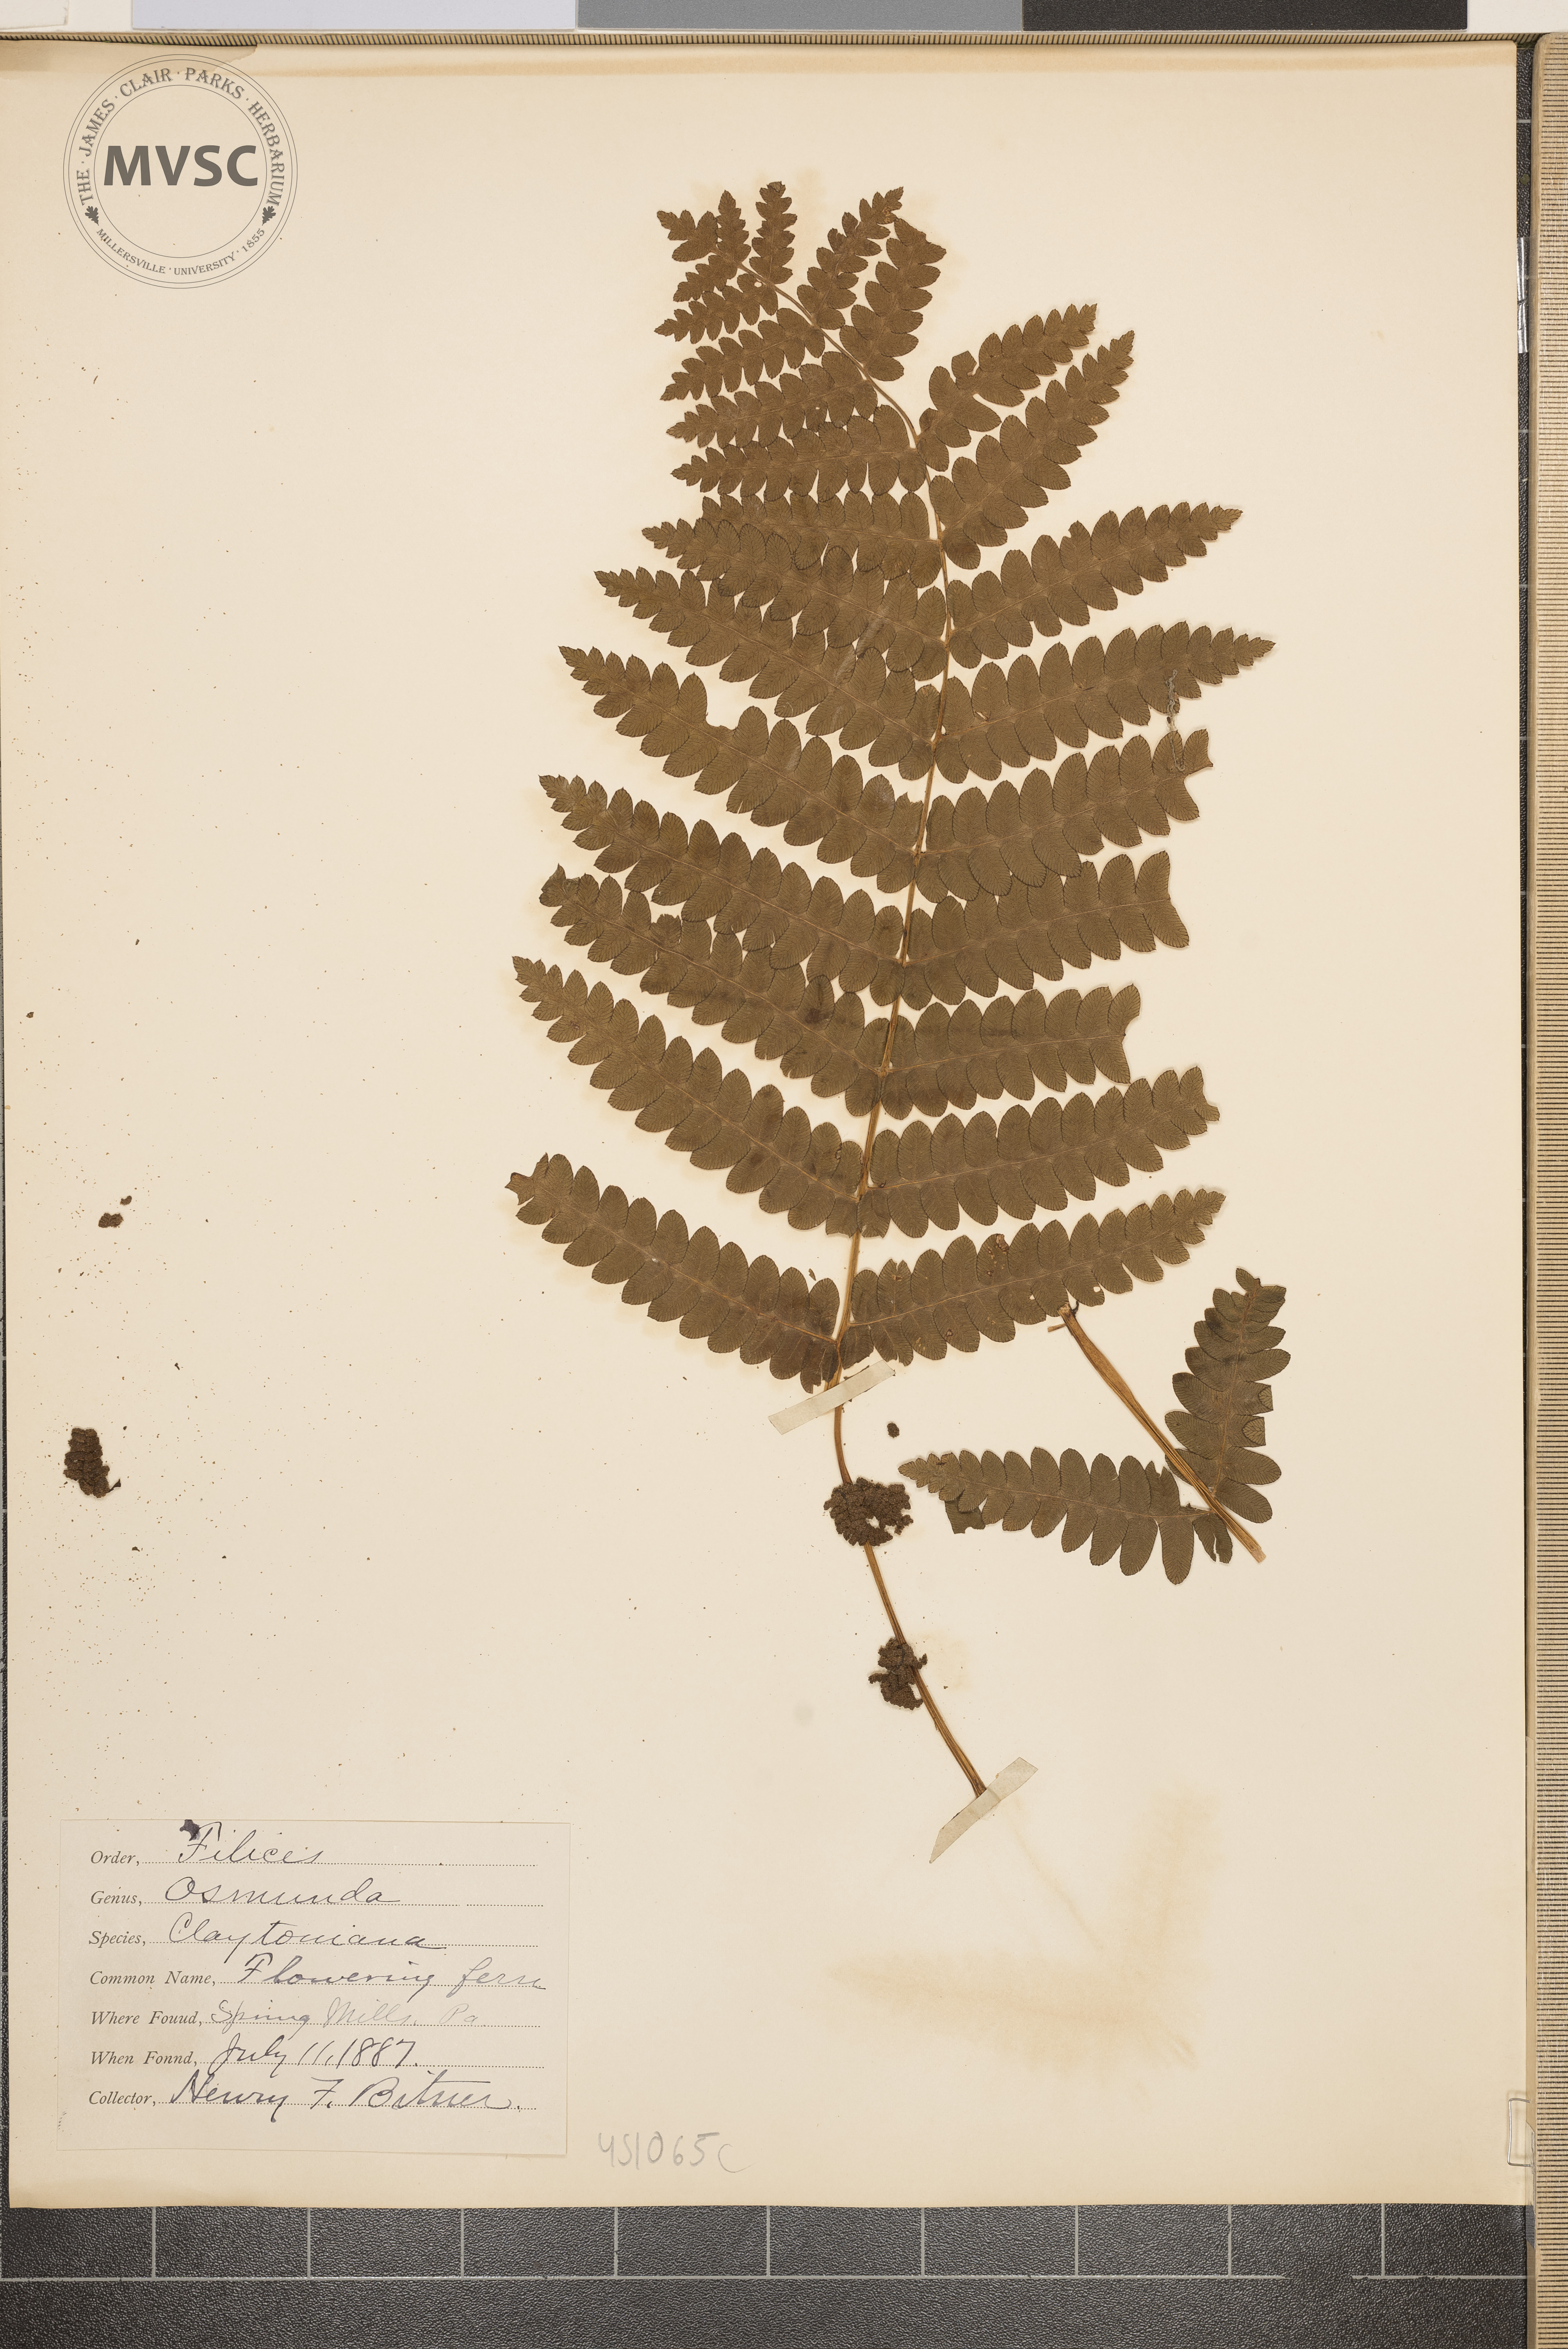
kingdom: Plantae
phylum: Tracheophyta
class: Polypodiopsida
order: Osmundales
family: Osmundaceae
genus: Claytosmunda
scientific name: Claytosmunda claytoniana
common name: Flowering fern
